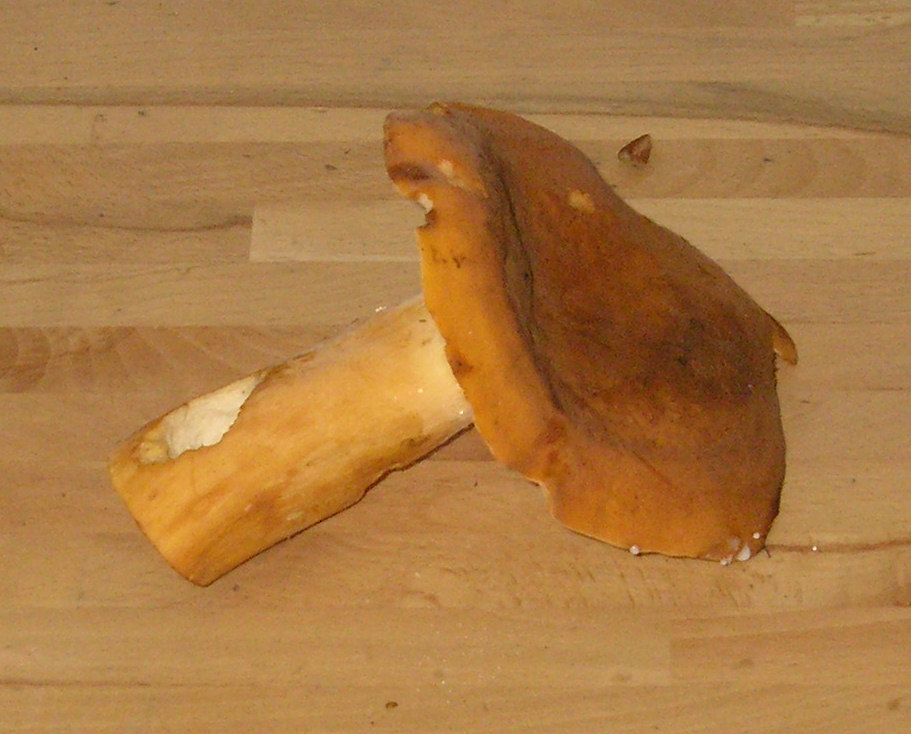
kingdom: Fungi
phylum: Basidiomycota
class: Agaricomycetes
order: Russulales
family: Russulaceae
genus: Lactifluus
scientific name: Lactifluus volemus
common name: spiselig mælkehat
